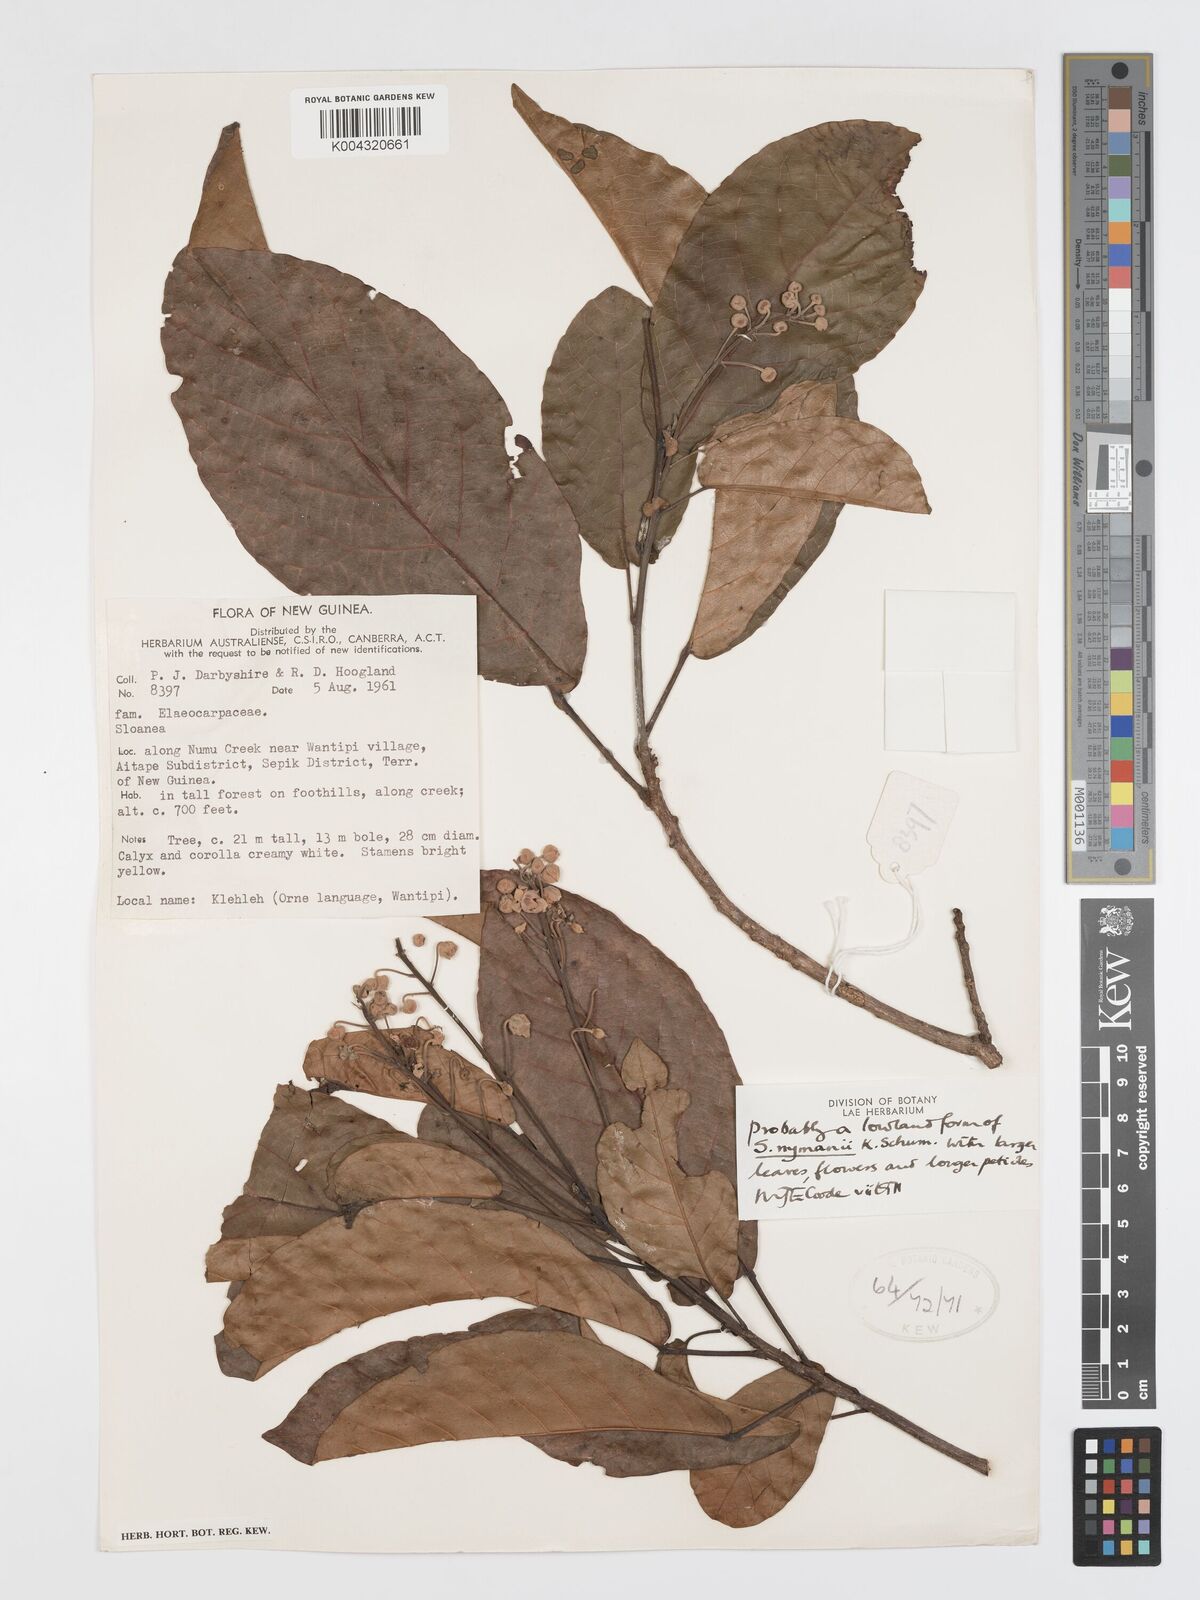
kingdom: Plantae
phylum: Tracheophyta
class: Magnoliopsida
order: Oxalidales
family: Elaeocarpaceae
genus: Sloanea
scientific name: Sloanea nymanii
